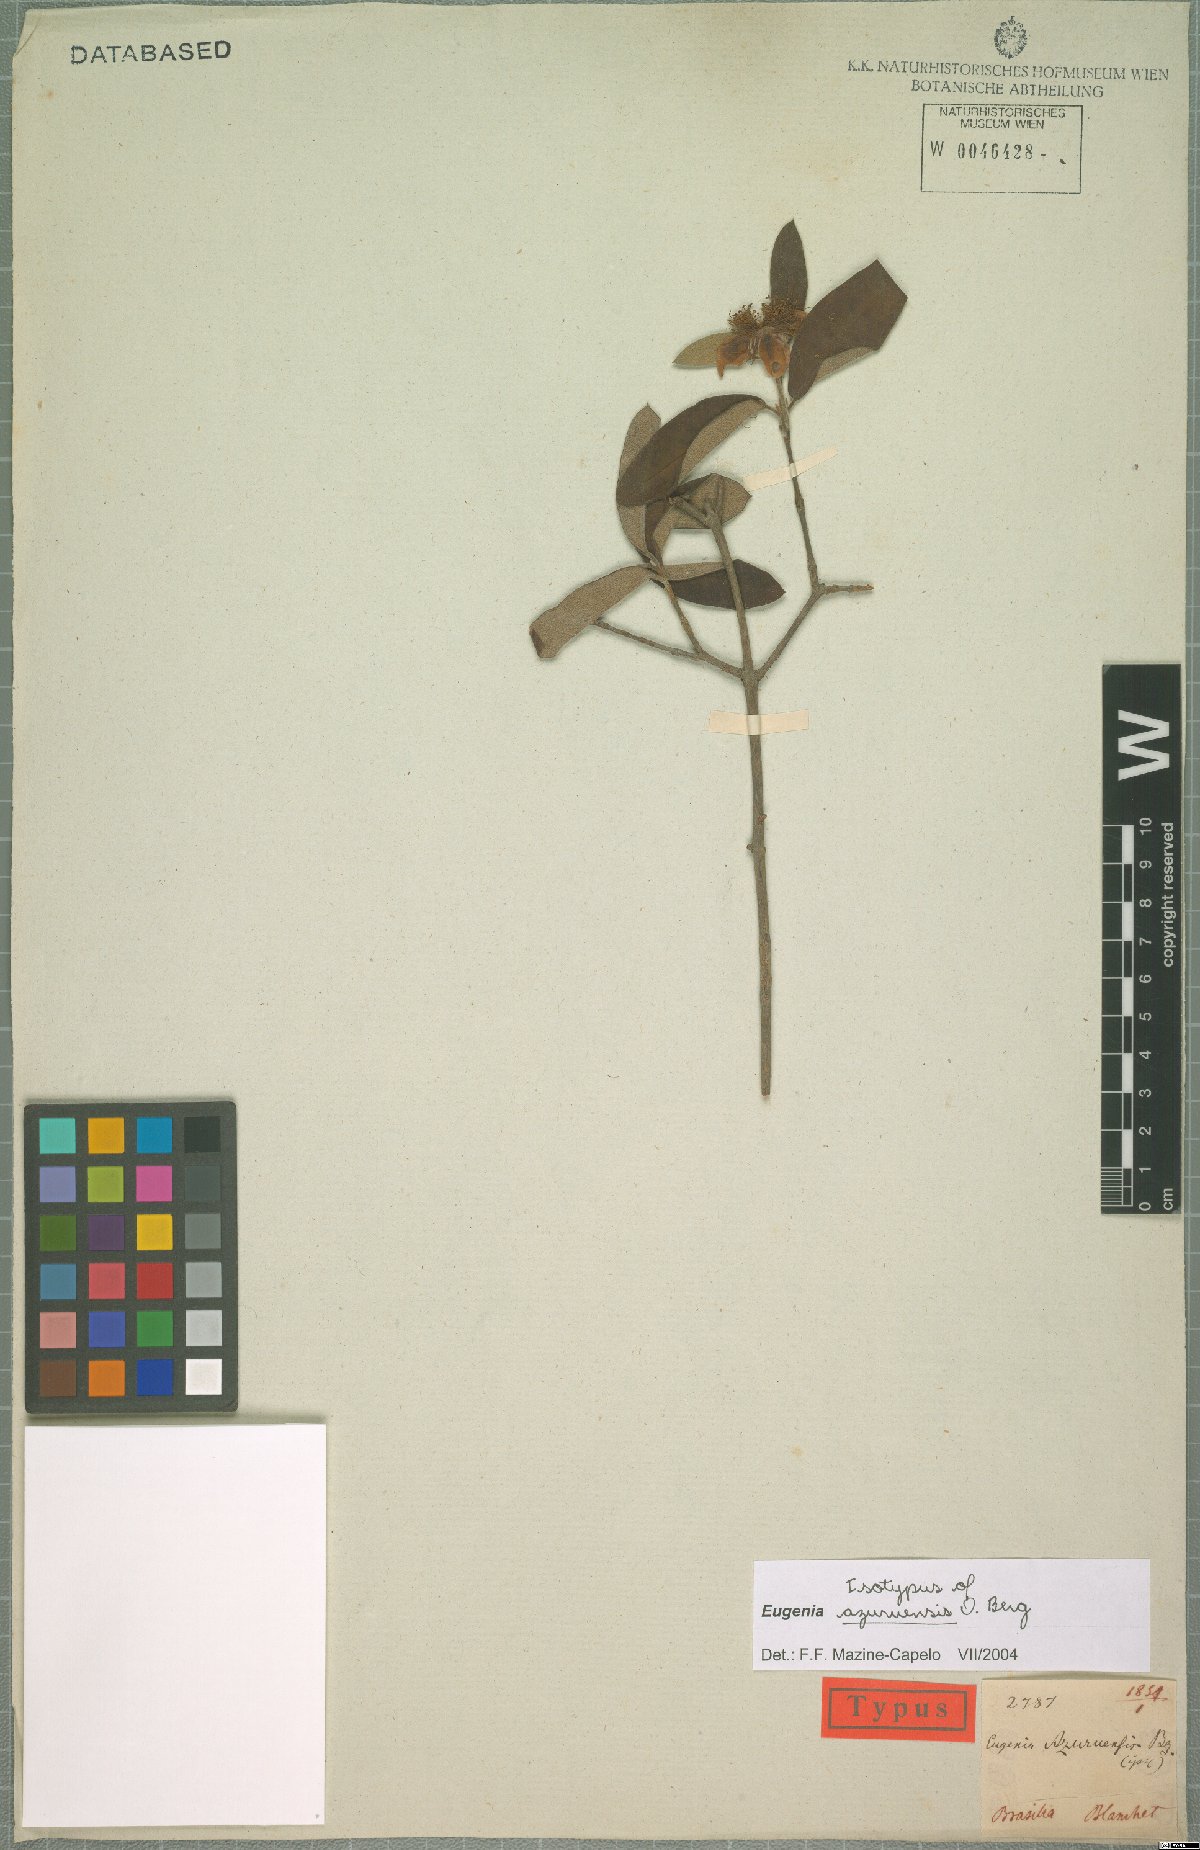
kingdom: Plantae
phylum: Tracheophyta
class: Magnoliopsida
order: Myrtales
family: Myrtaceae
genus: Eugenia
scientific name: Eugenia azuruensis
